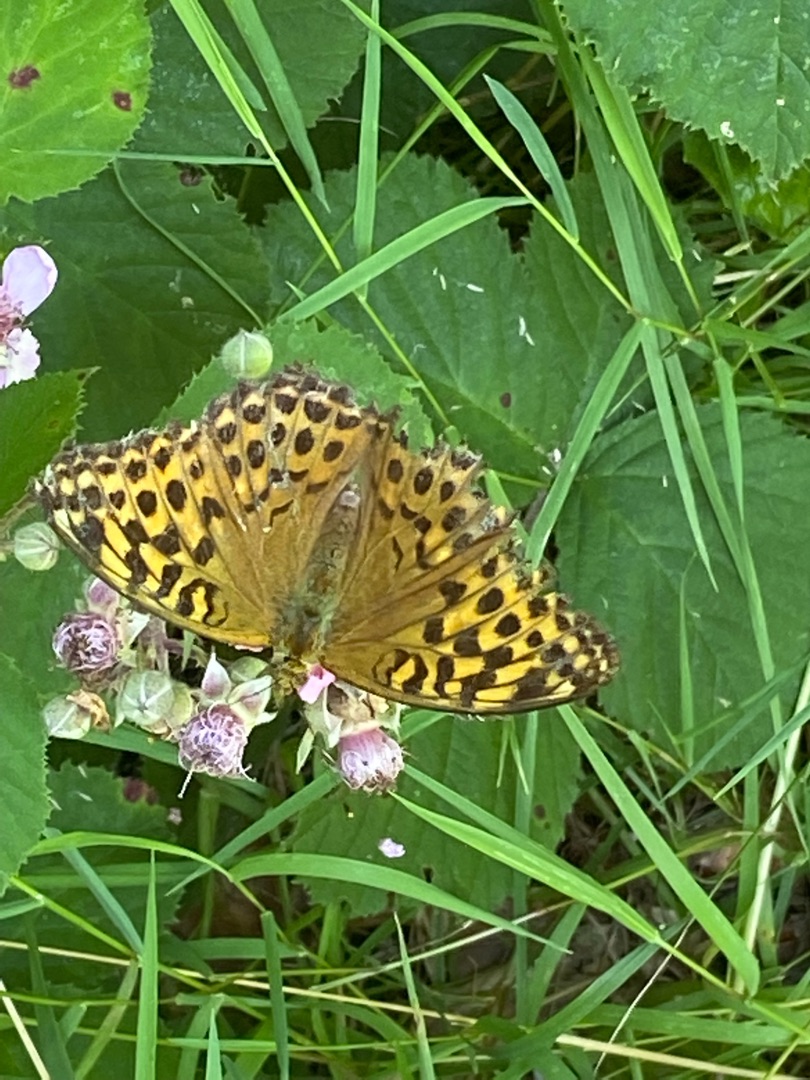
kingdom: Animalia
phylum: Arthropoda
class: Insecta
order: Lepidoptera
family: Nymphalidae
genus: Argynnis
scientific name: Argynnis paphia
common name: Kejserkåbe
